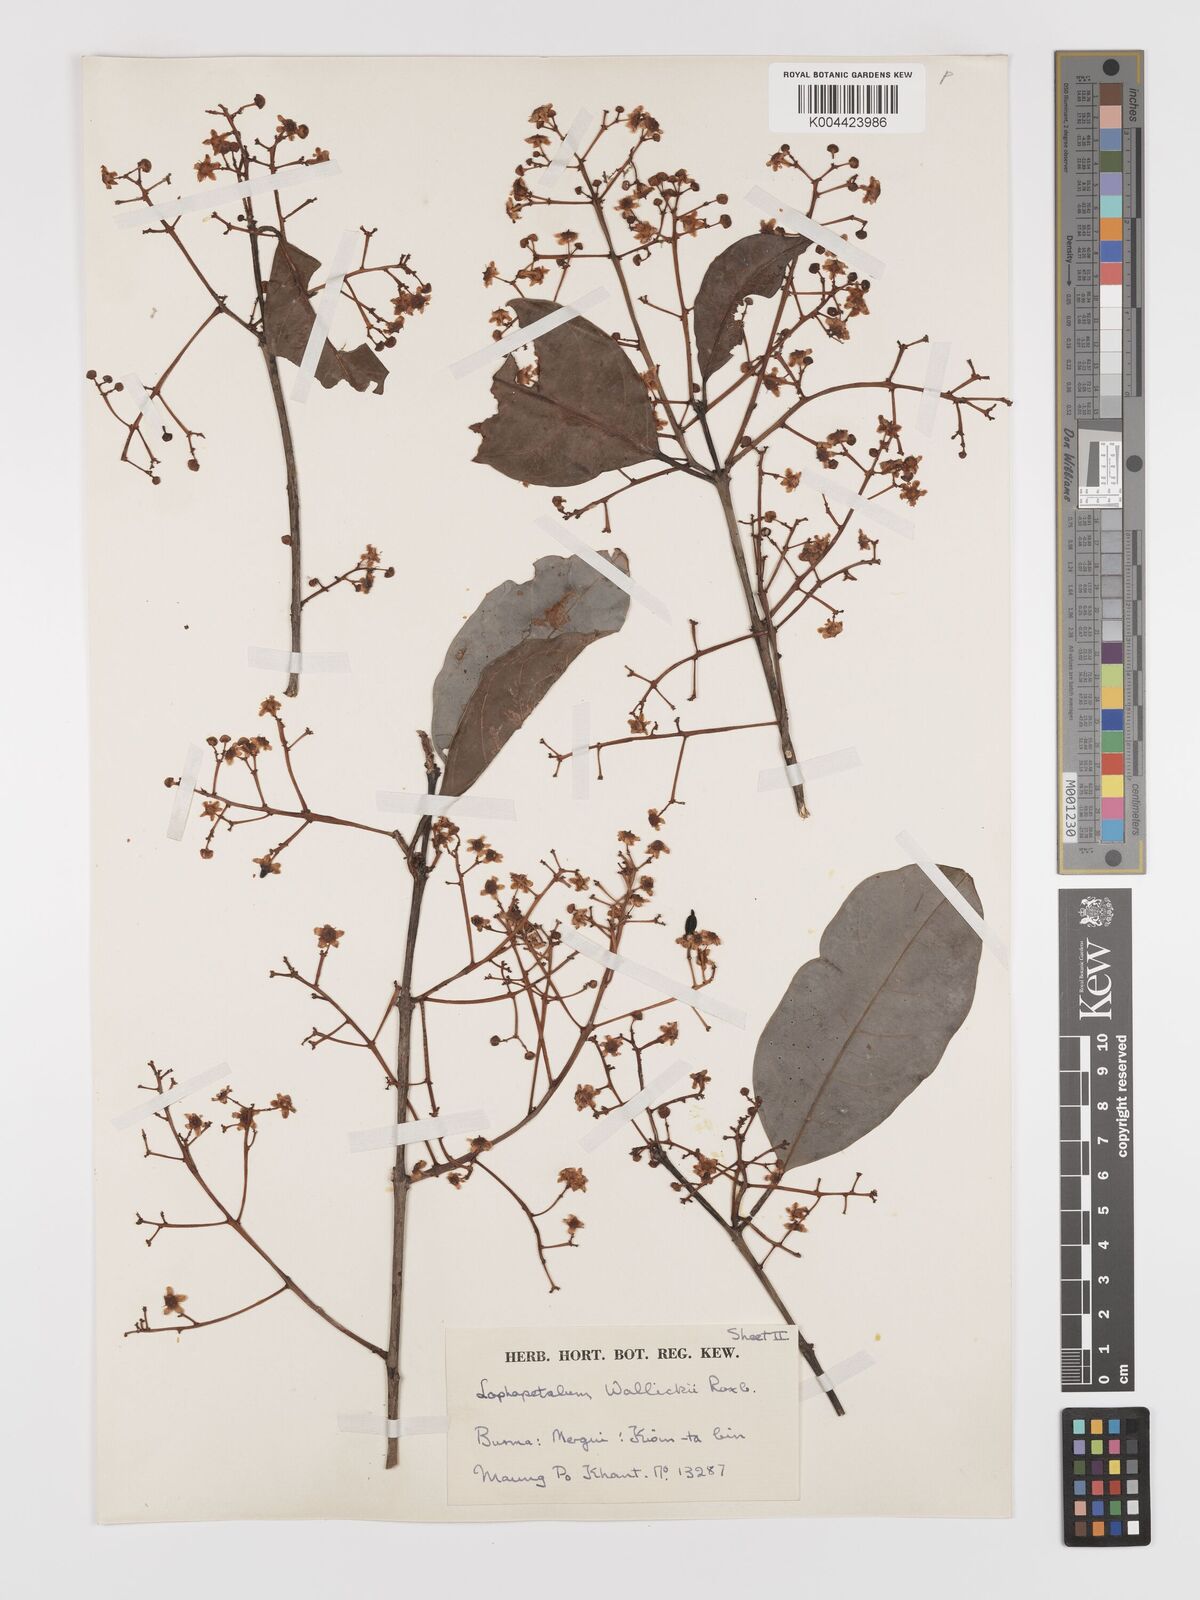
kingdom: Plantae
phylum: Tracheophyta
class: Magnoliopsida
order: Celastrales
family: Celastraceae
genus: Lophopetalum
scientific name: Lophopetalum wallichii
